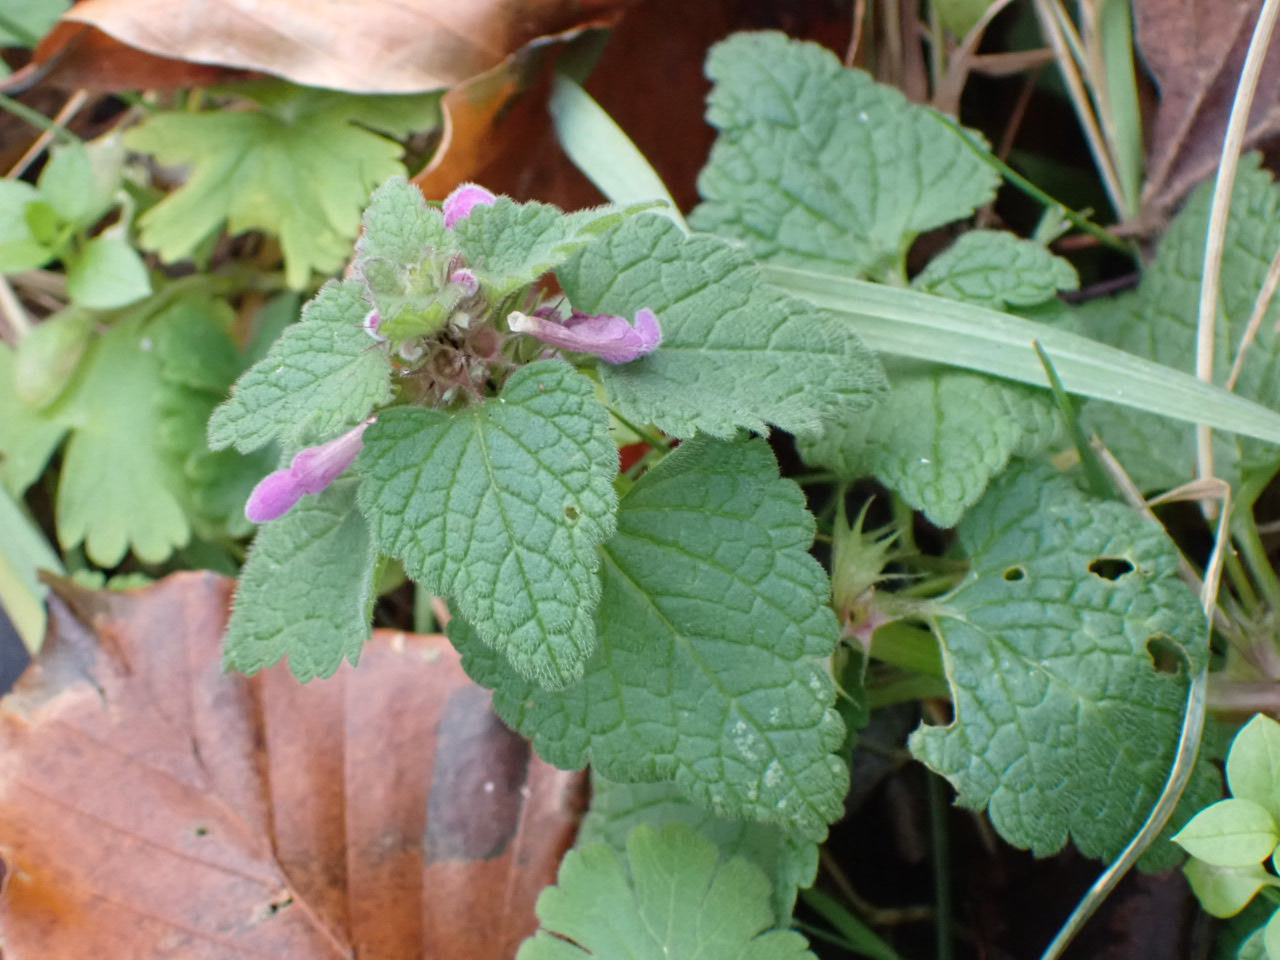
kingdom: Plantae
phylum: Tracheophyta
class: Magnoliopsida
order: Lamiales
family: Lamiaceae
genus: Lamium
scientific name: Lamium purpureum
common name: Rød tvetand
